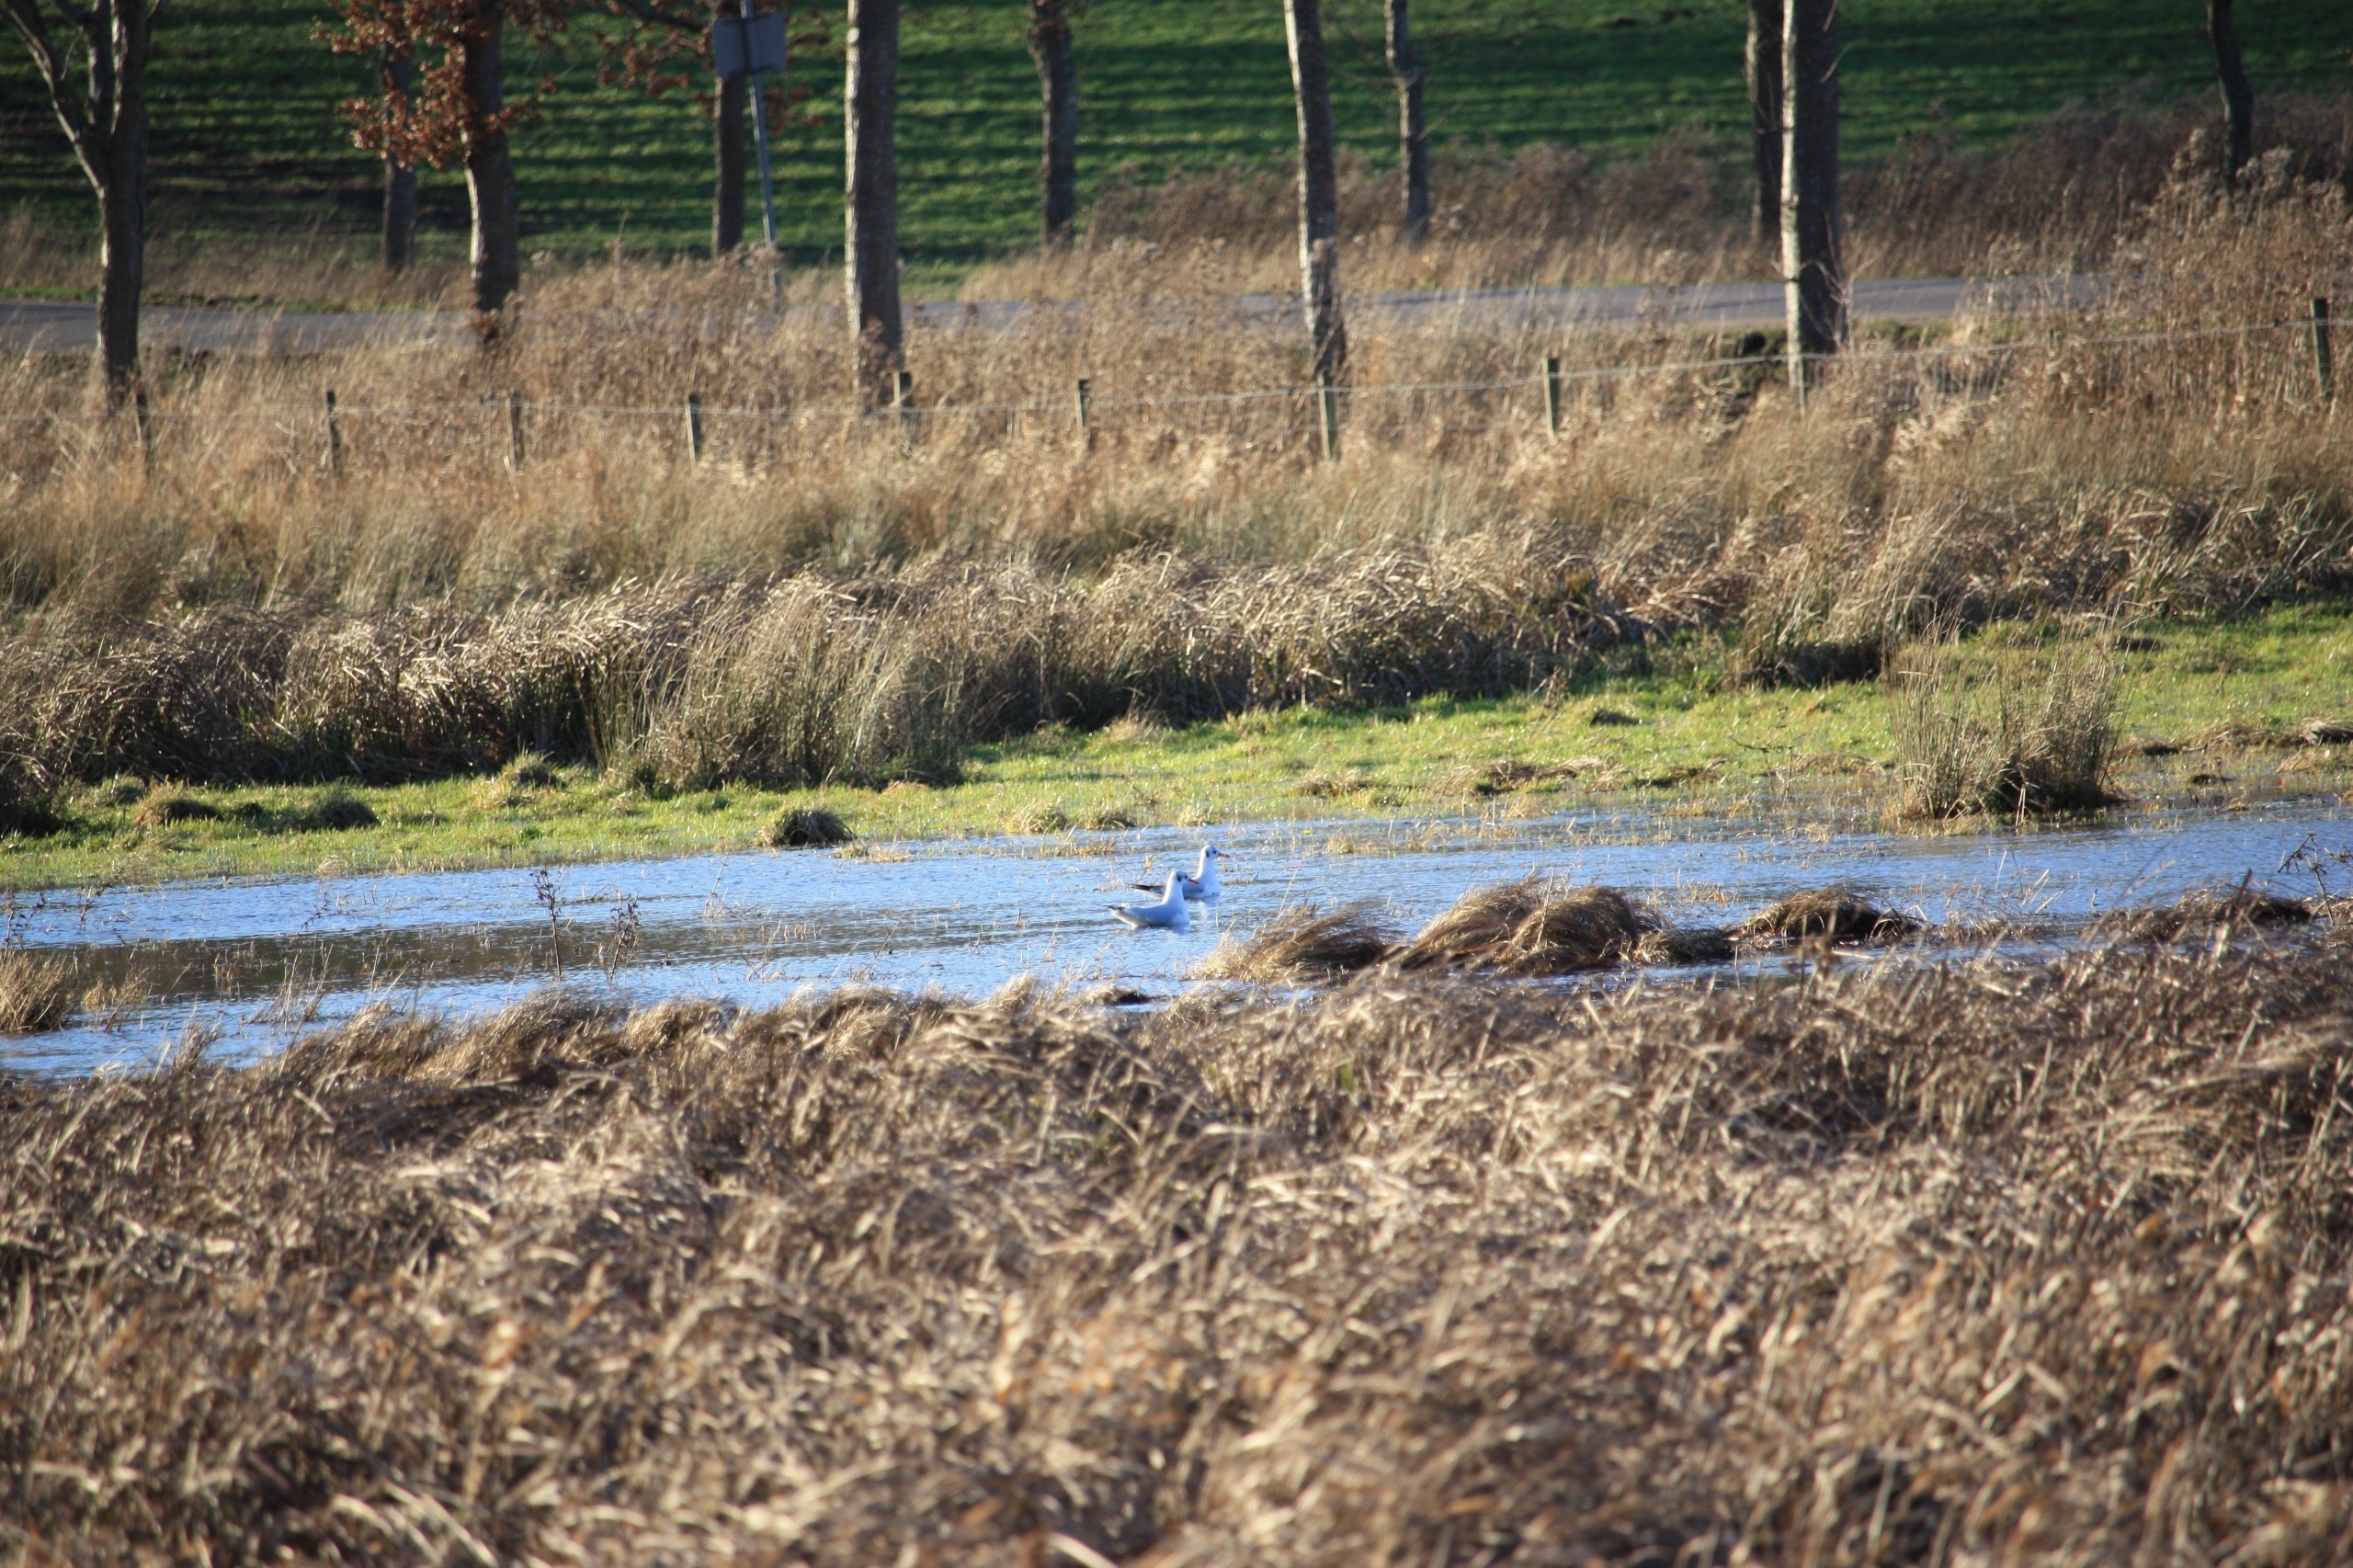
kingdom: Animalia
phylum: Chordata
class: Aves
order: Charadriiformes
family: Laridae
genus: Chroicocephalus
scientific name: Chroicocephalus ridibundus
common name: Hættemåge
